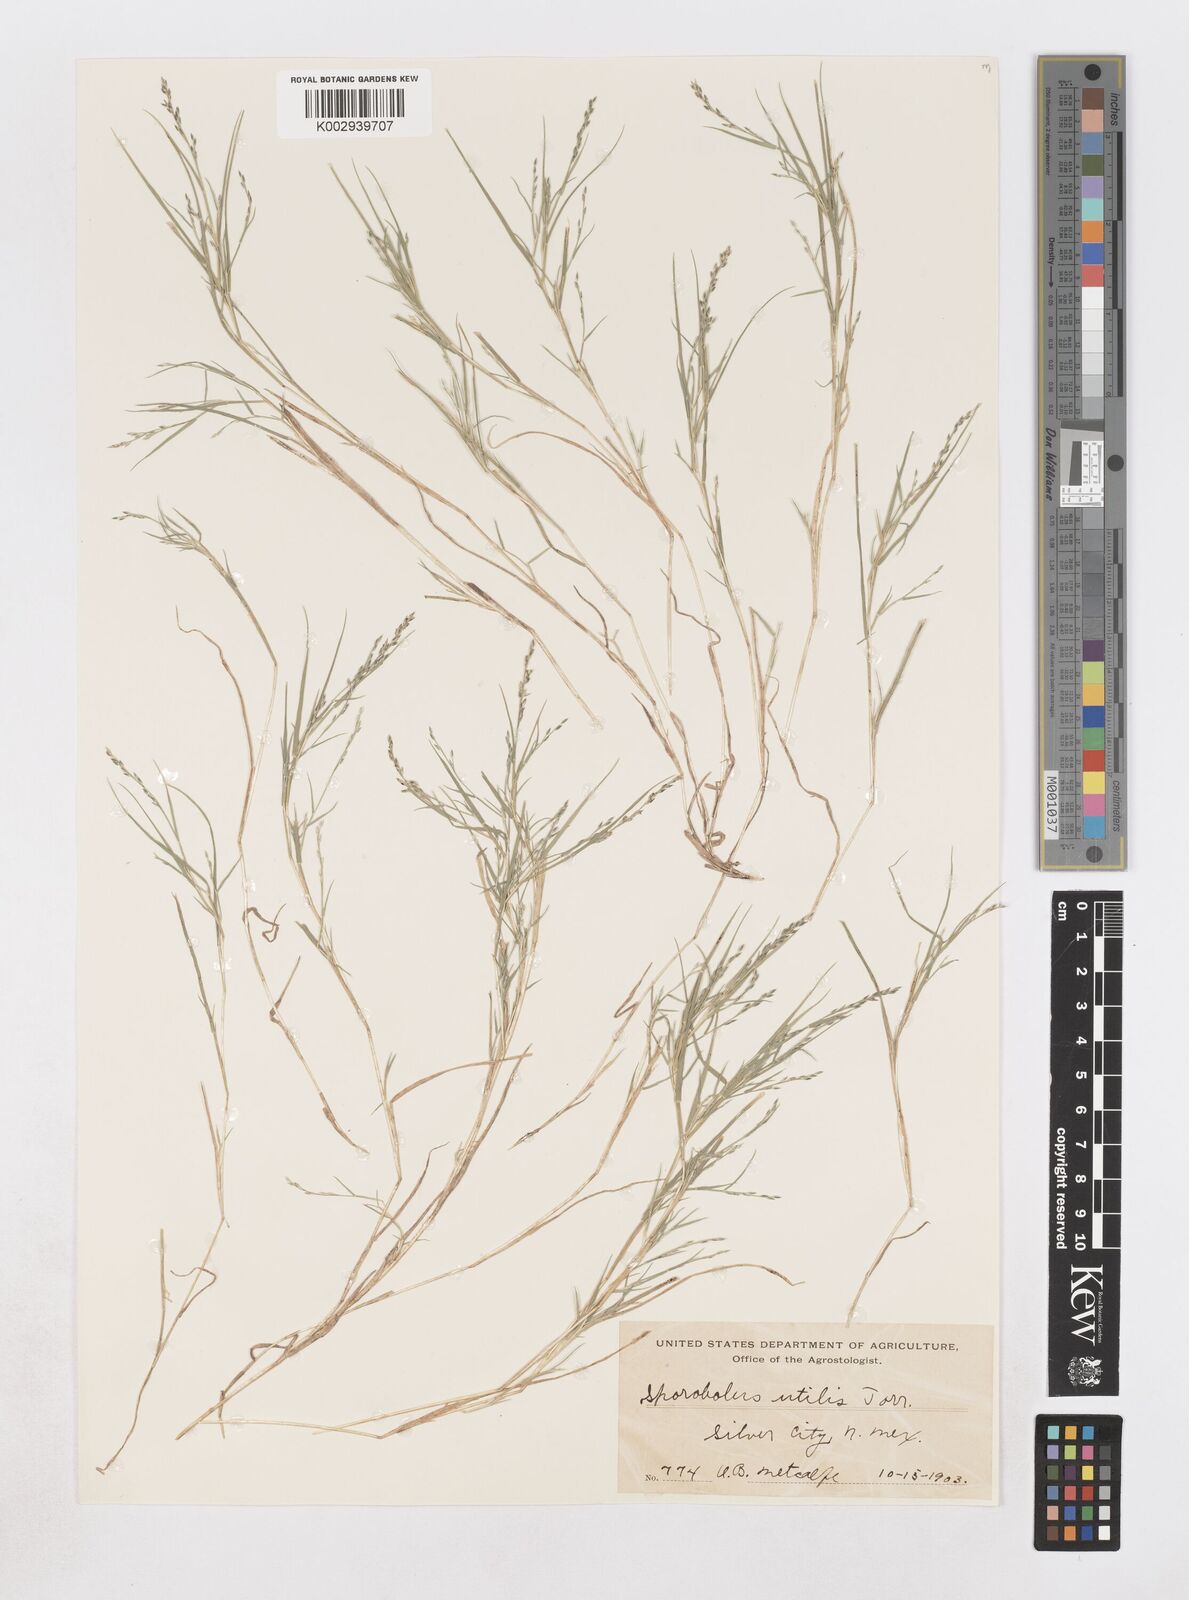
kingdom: Plantae
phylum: Tracheophyta
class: Liliopsida
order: Poales
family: Poaceae
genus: Muhlenbergia
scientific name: Muhlenbergia utilis
